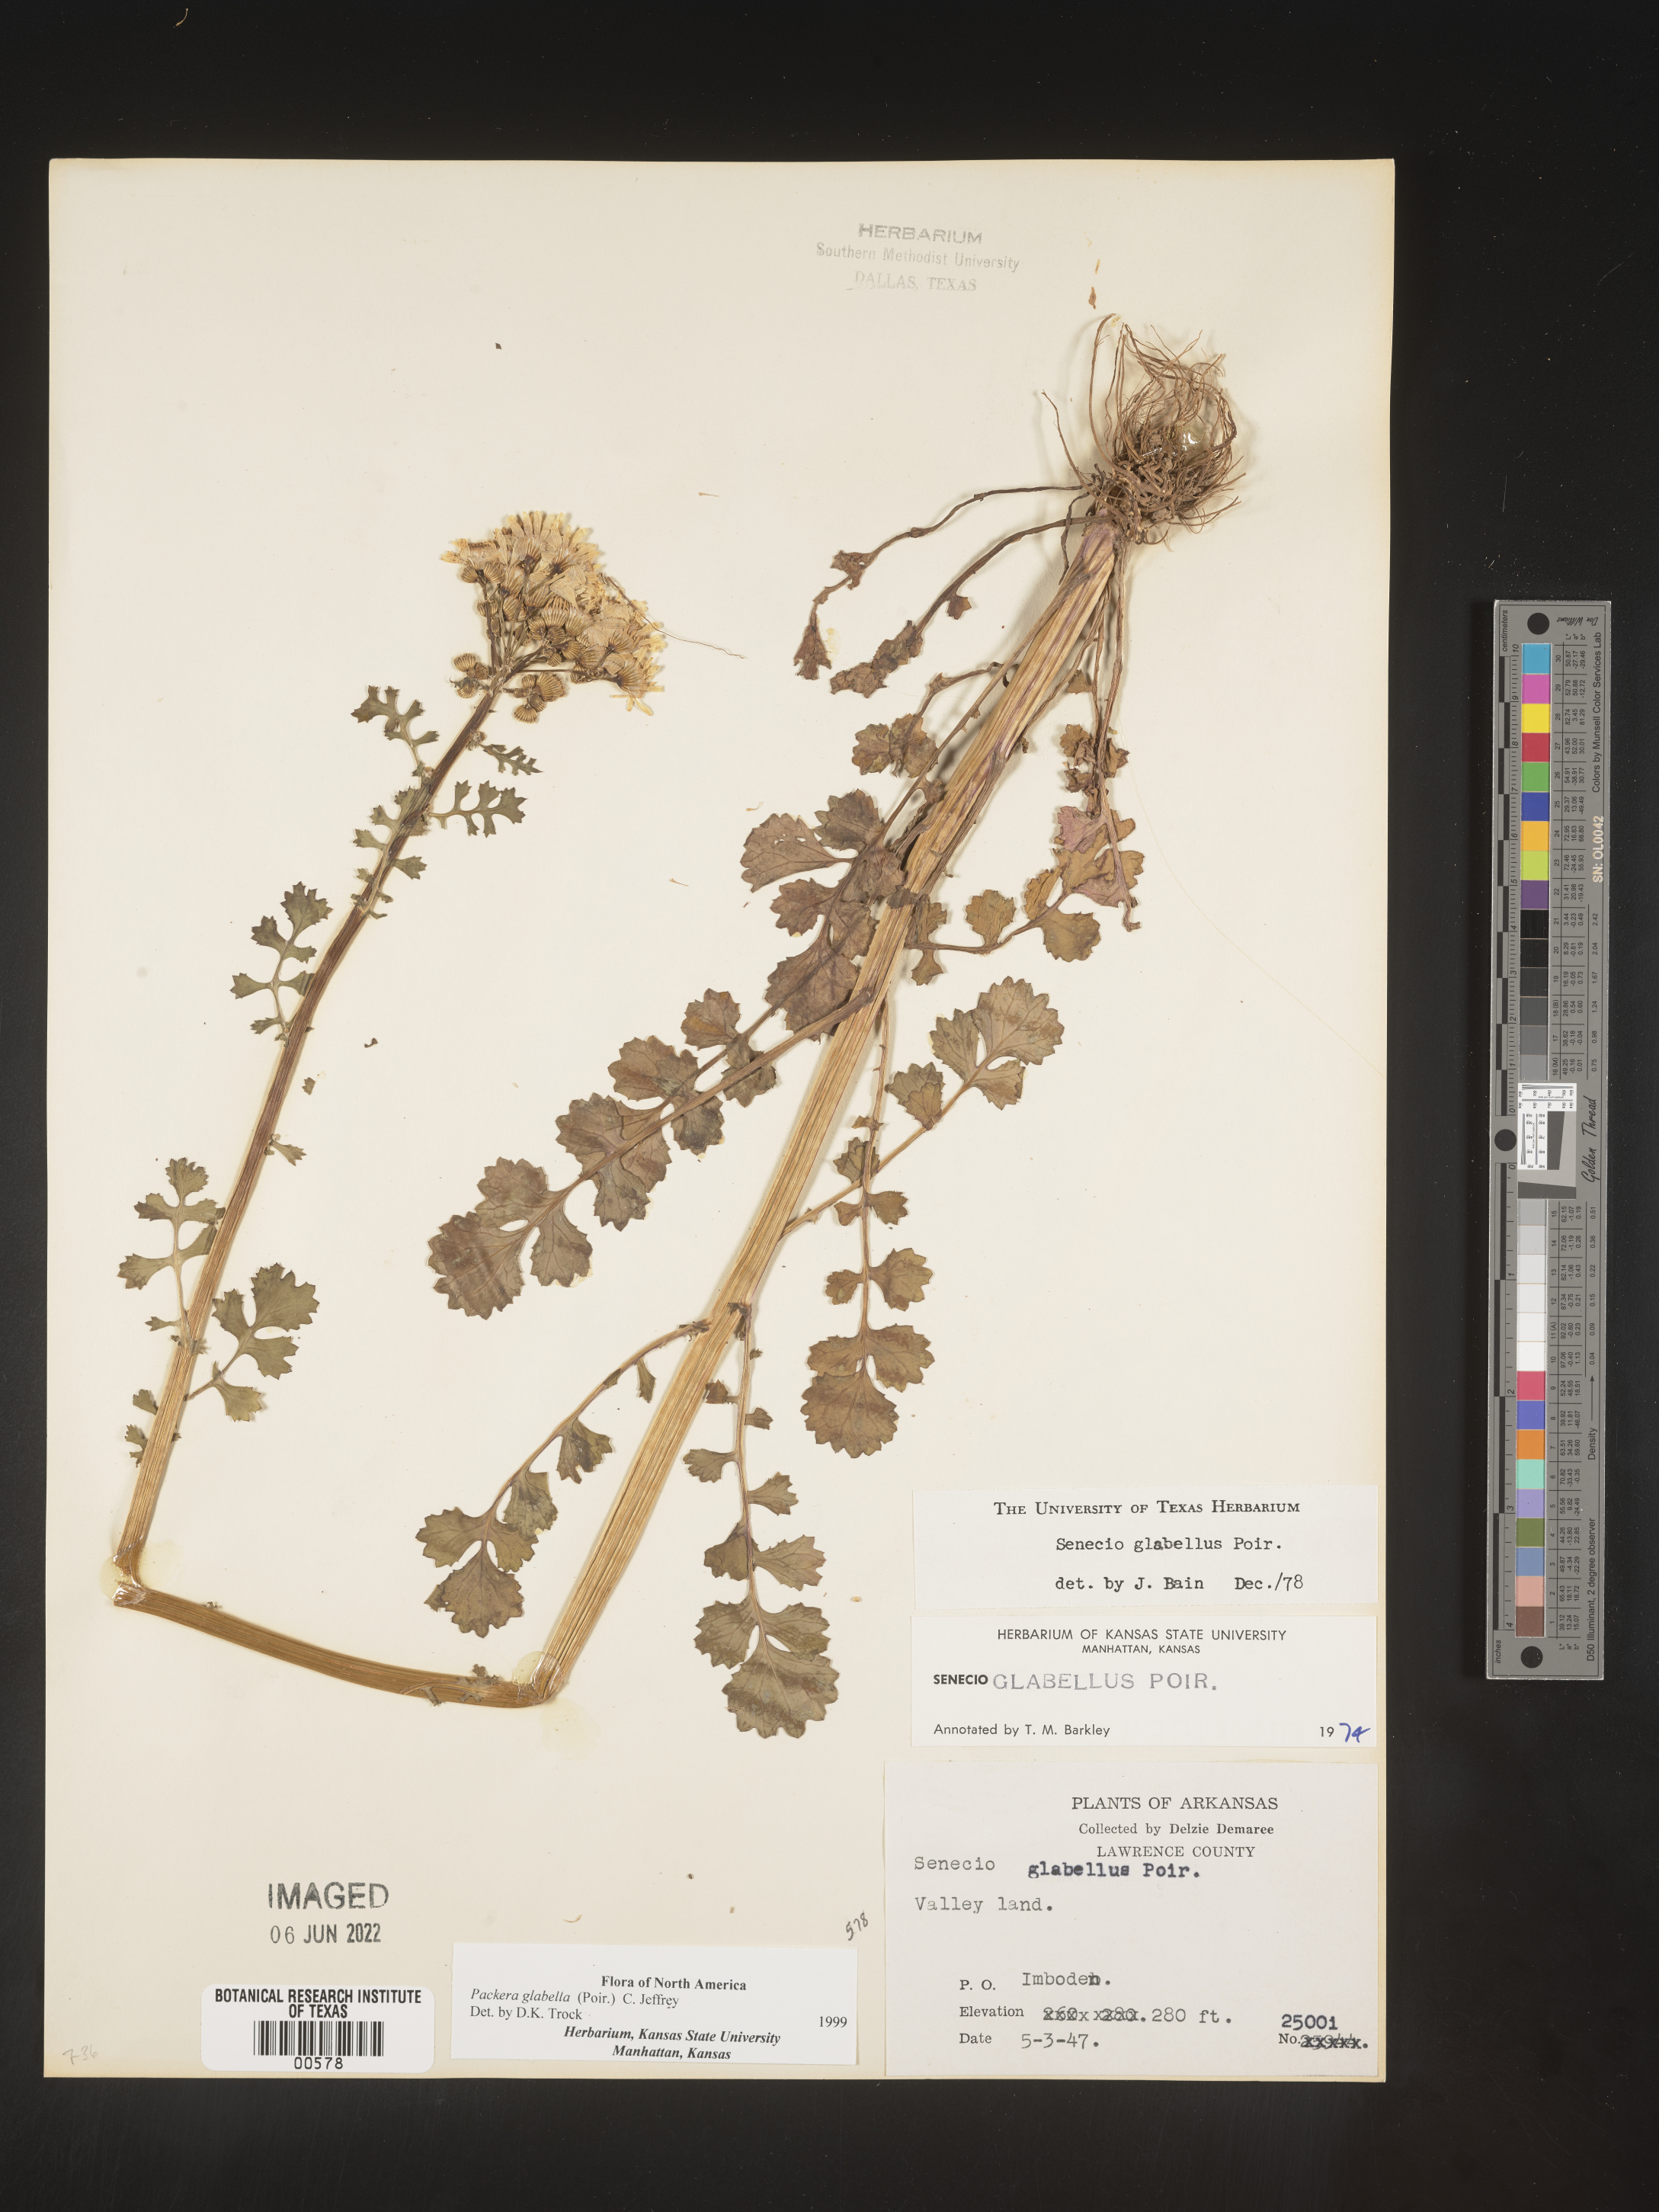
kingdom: Plantae
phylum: Tracheophyta
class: Magnoliopsida
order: Asterales
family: Asteraceae
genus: Packera
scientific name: Packera glabella
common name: Butterweed
